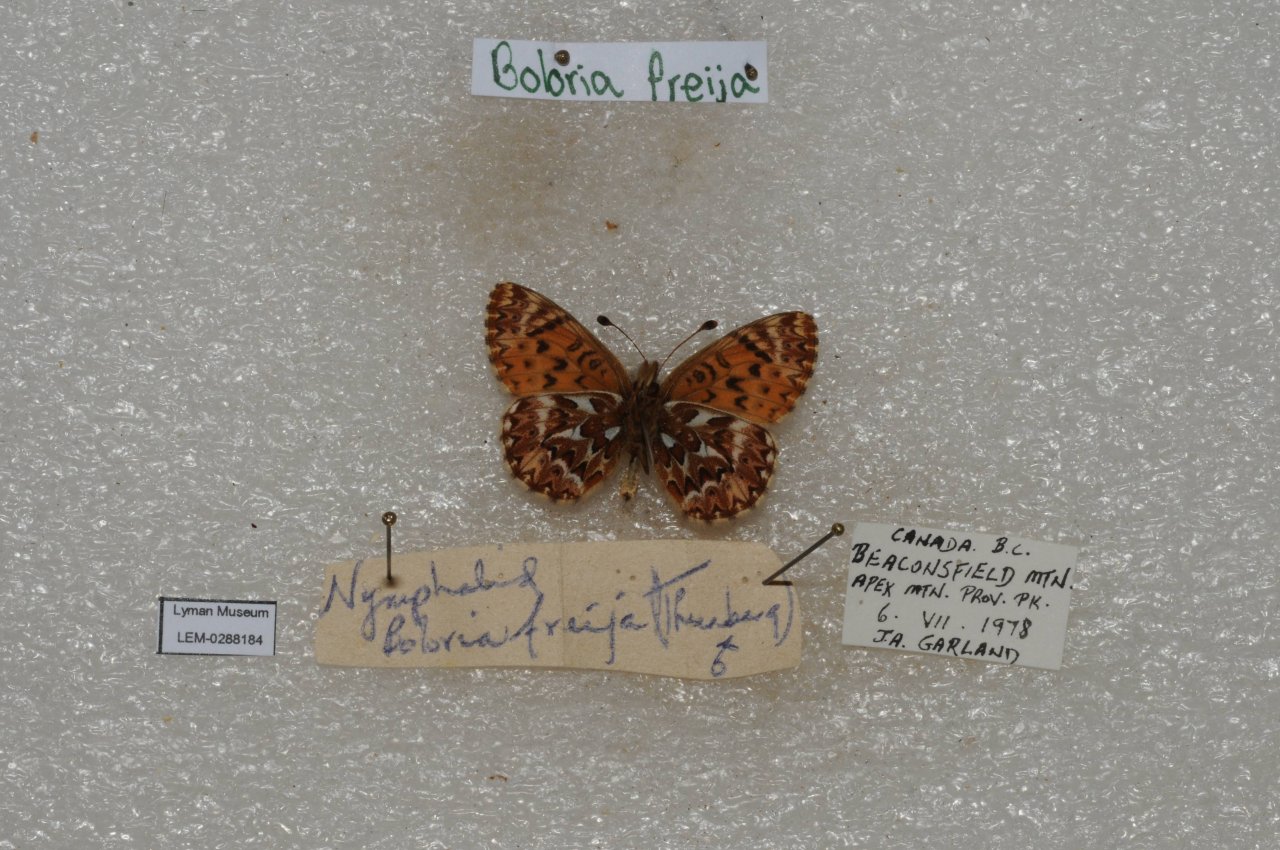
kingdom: Animalia
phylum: Arthropoda
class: Insecta
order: Lepidoptera
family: Nymphalidae
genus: Boloria
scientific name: Boloria freija
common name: Freija Fritillary
